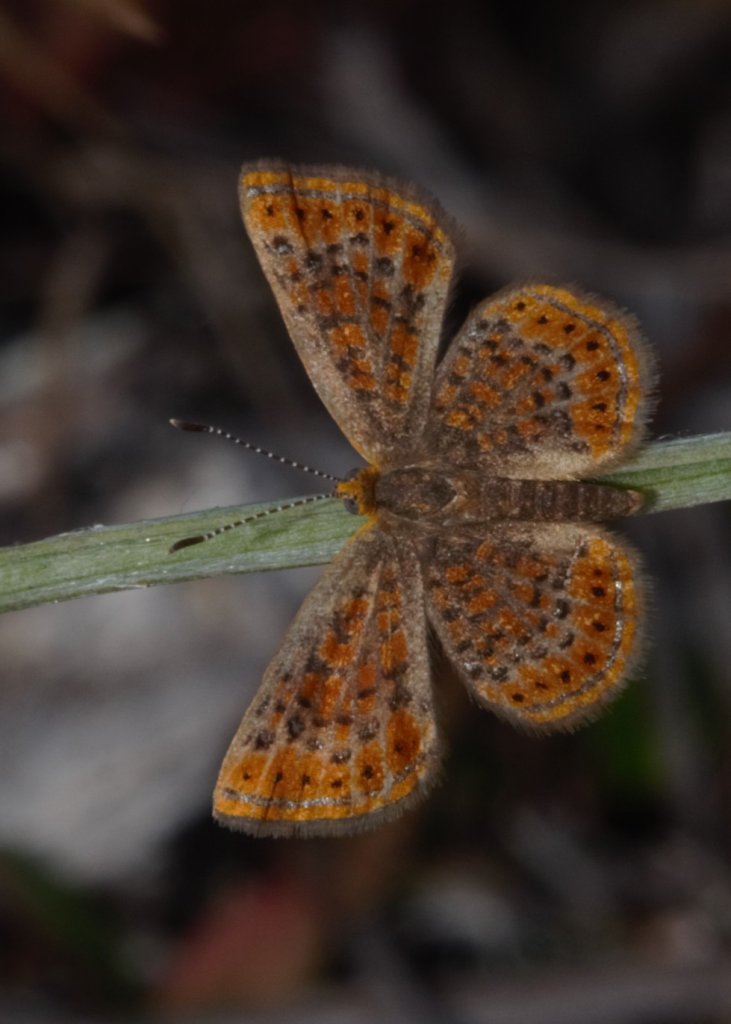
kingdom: Animalia
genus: Calephelis
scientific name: Calephelis virginiensis
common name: Little Metalmark
